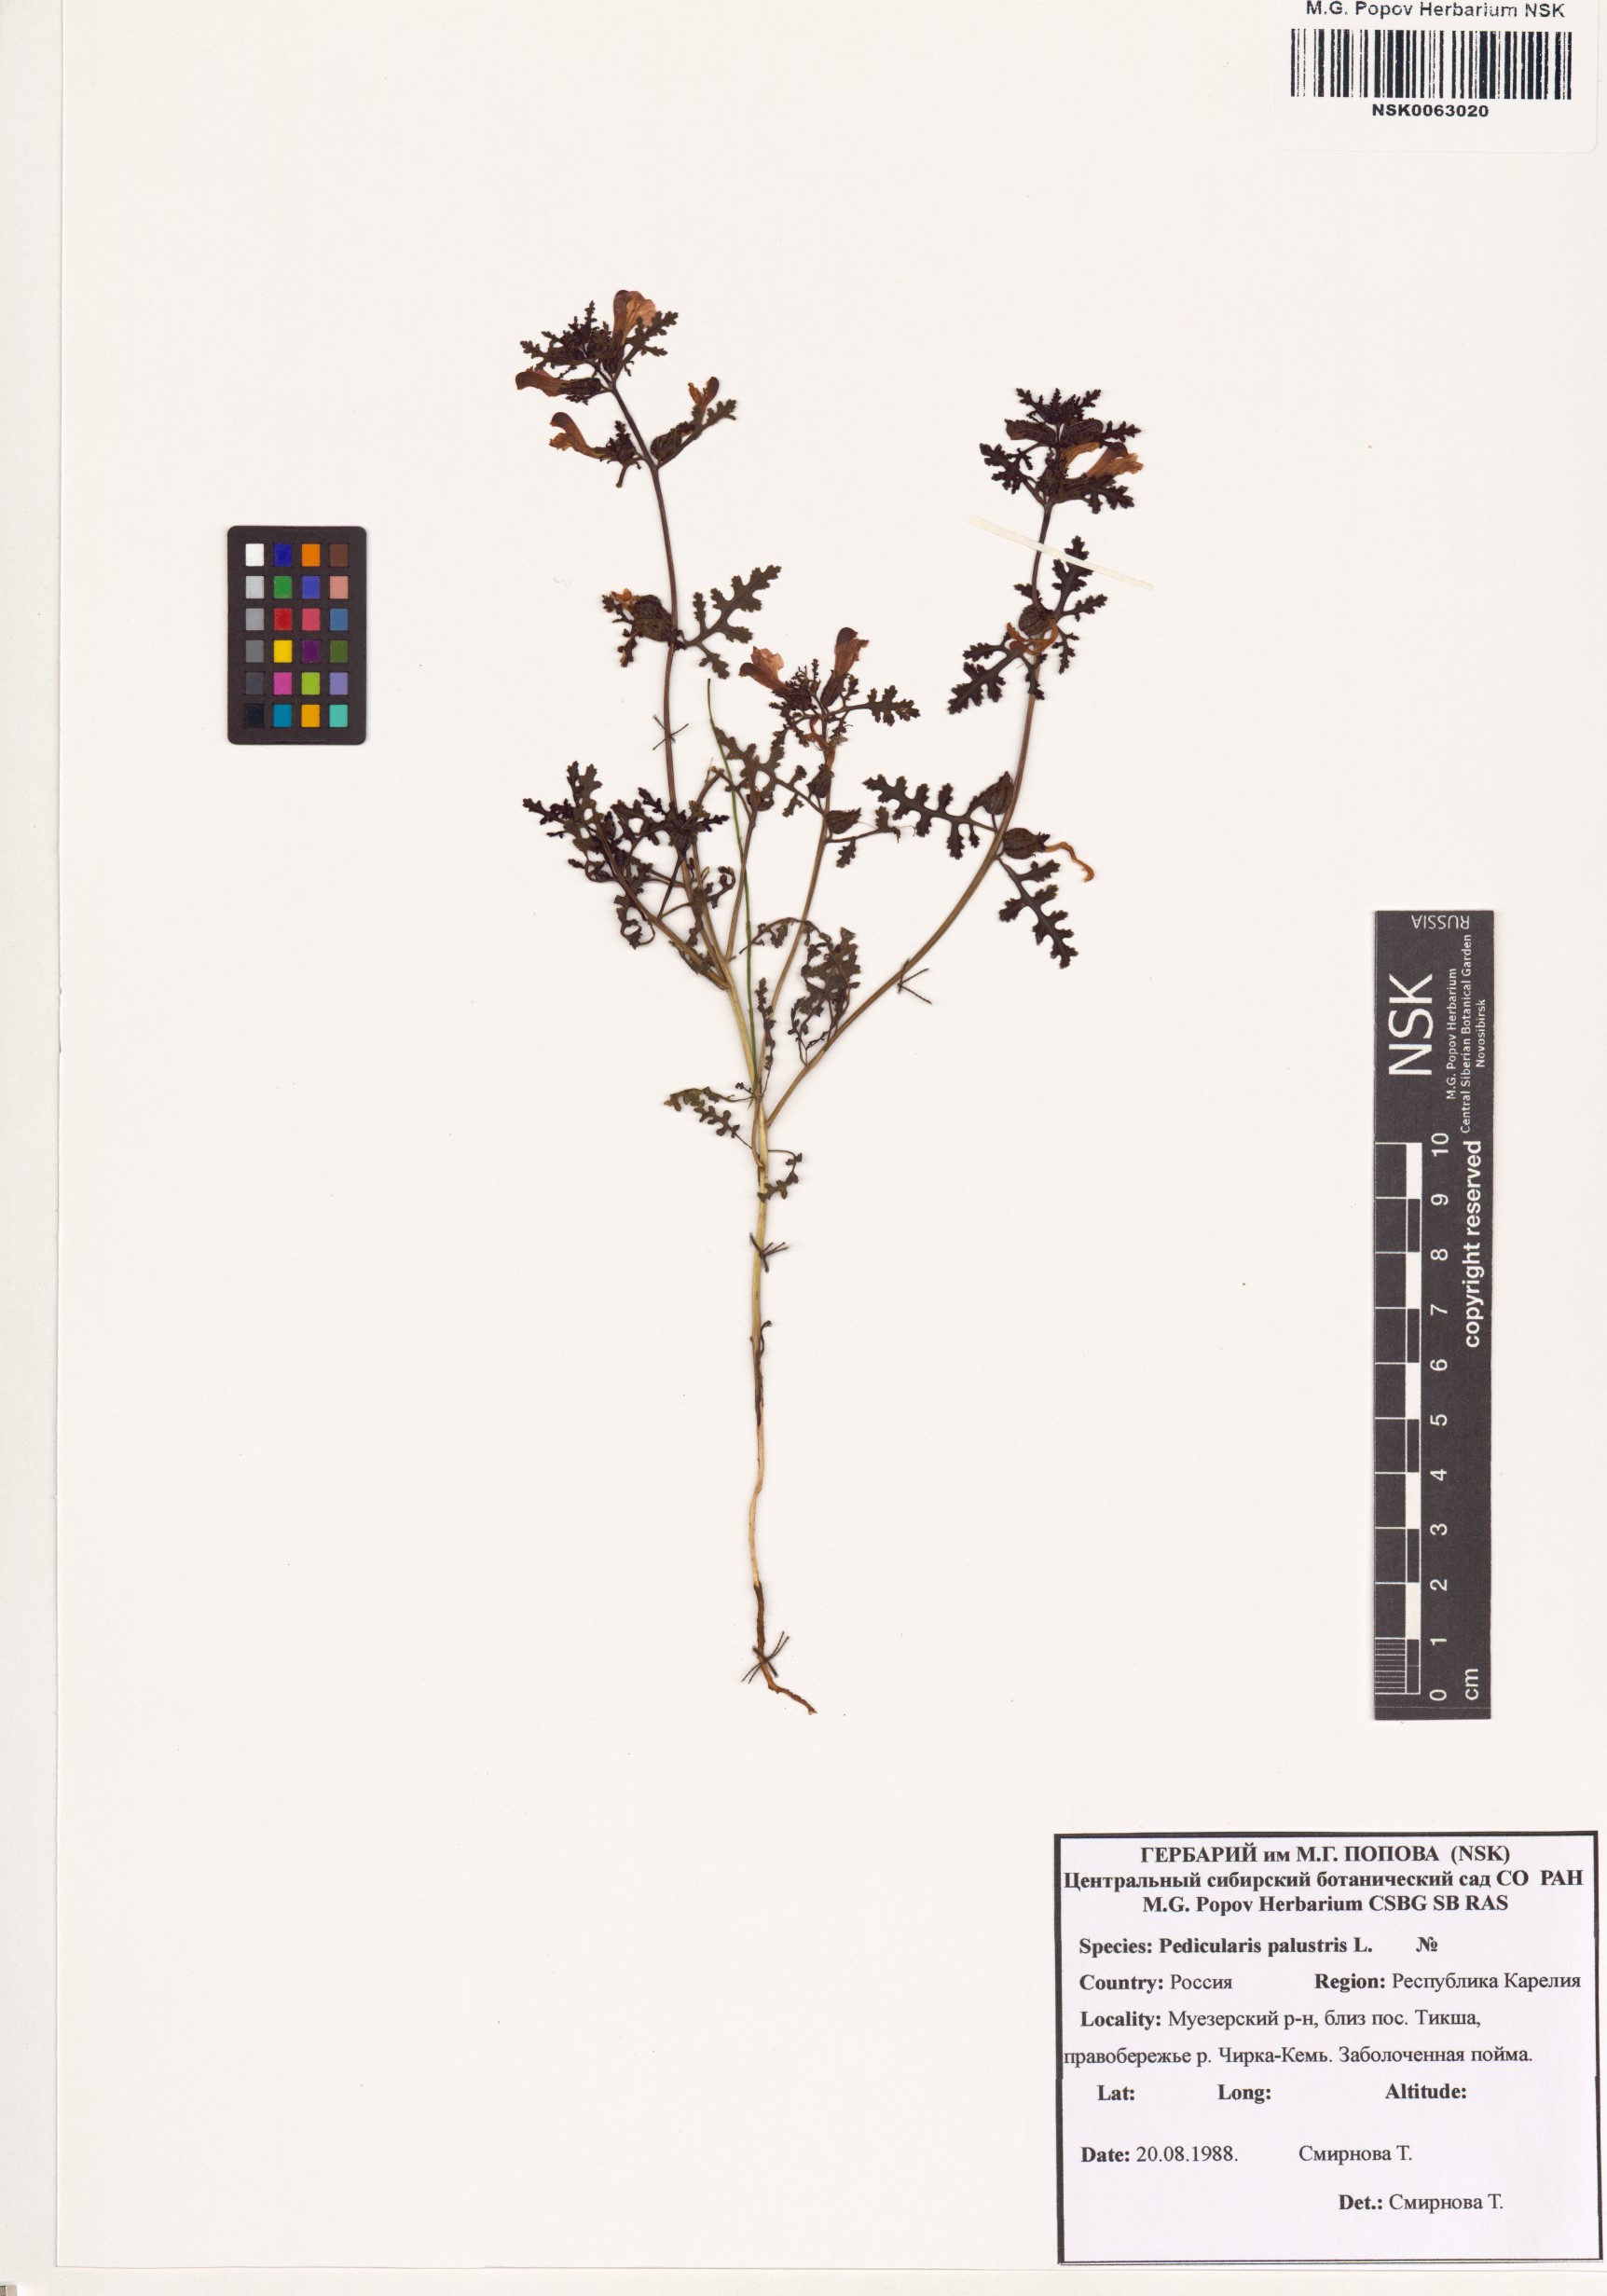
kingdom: Plantae
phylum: Tracheophyta
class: Magnoliopsida
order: Lamiales
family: Orobanchaceae
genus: Pedicularis
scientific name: Pedicularis palustris
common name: Marsh lousewort
